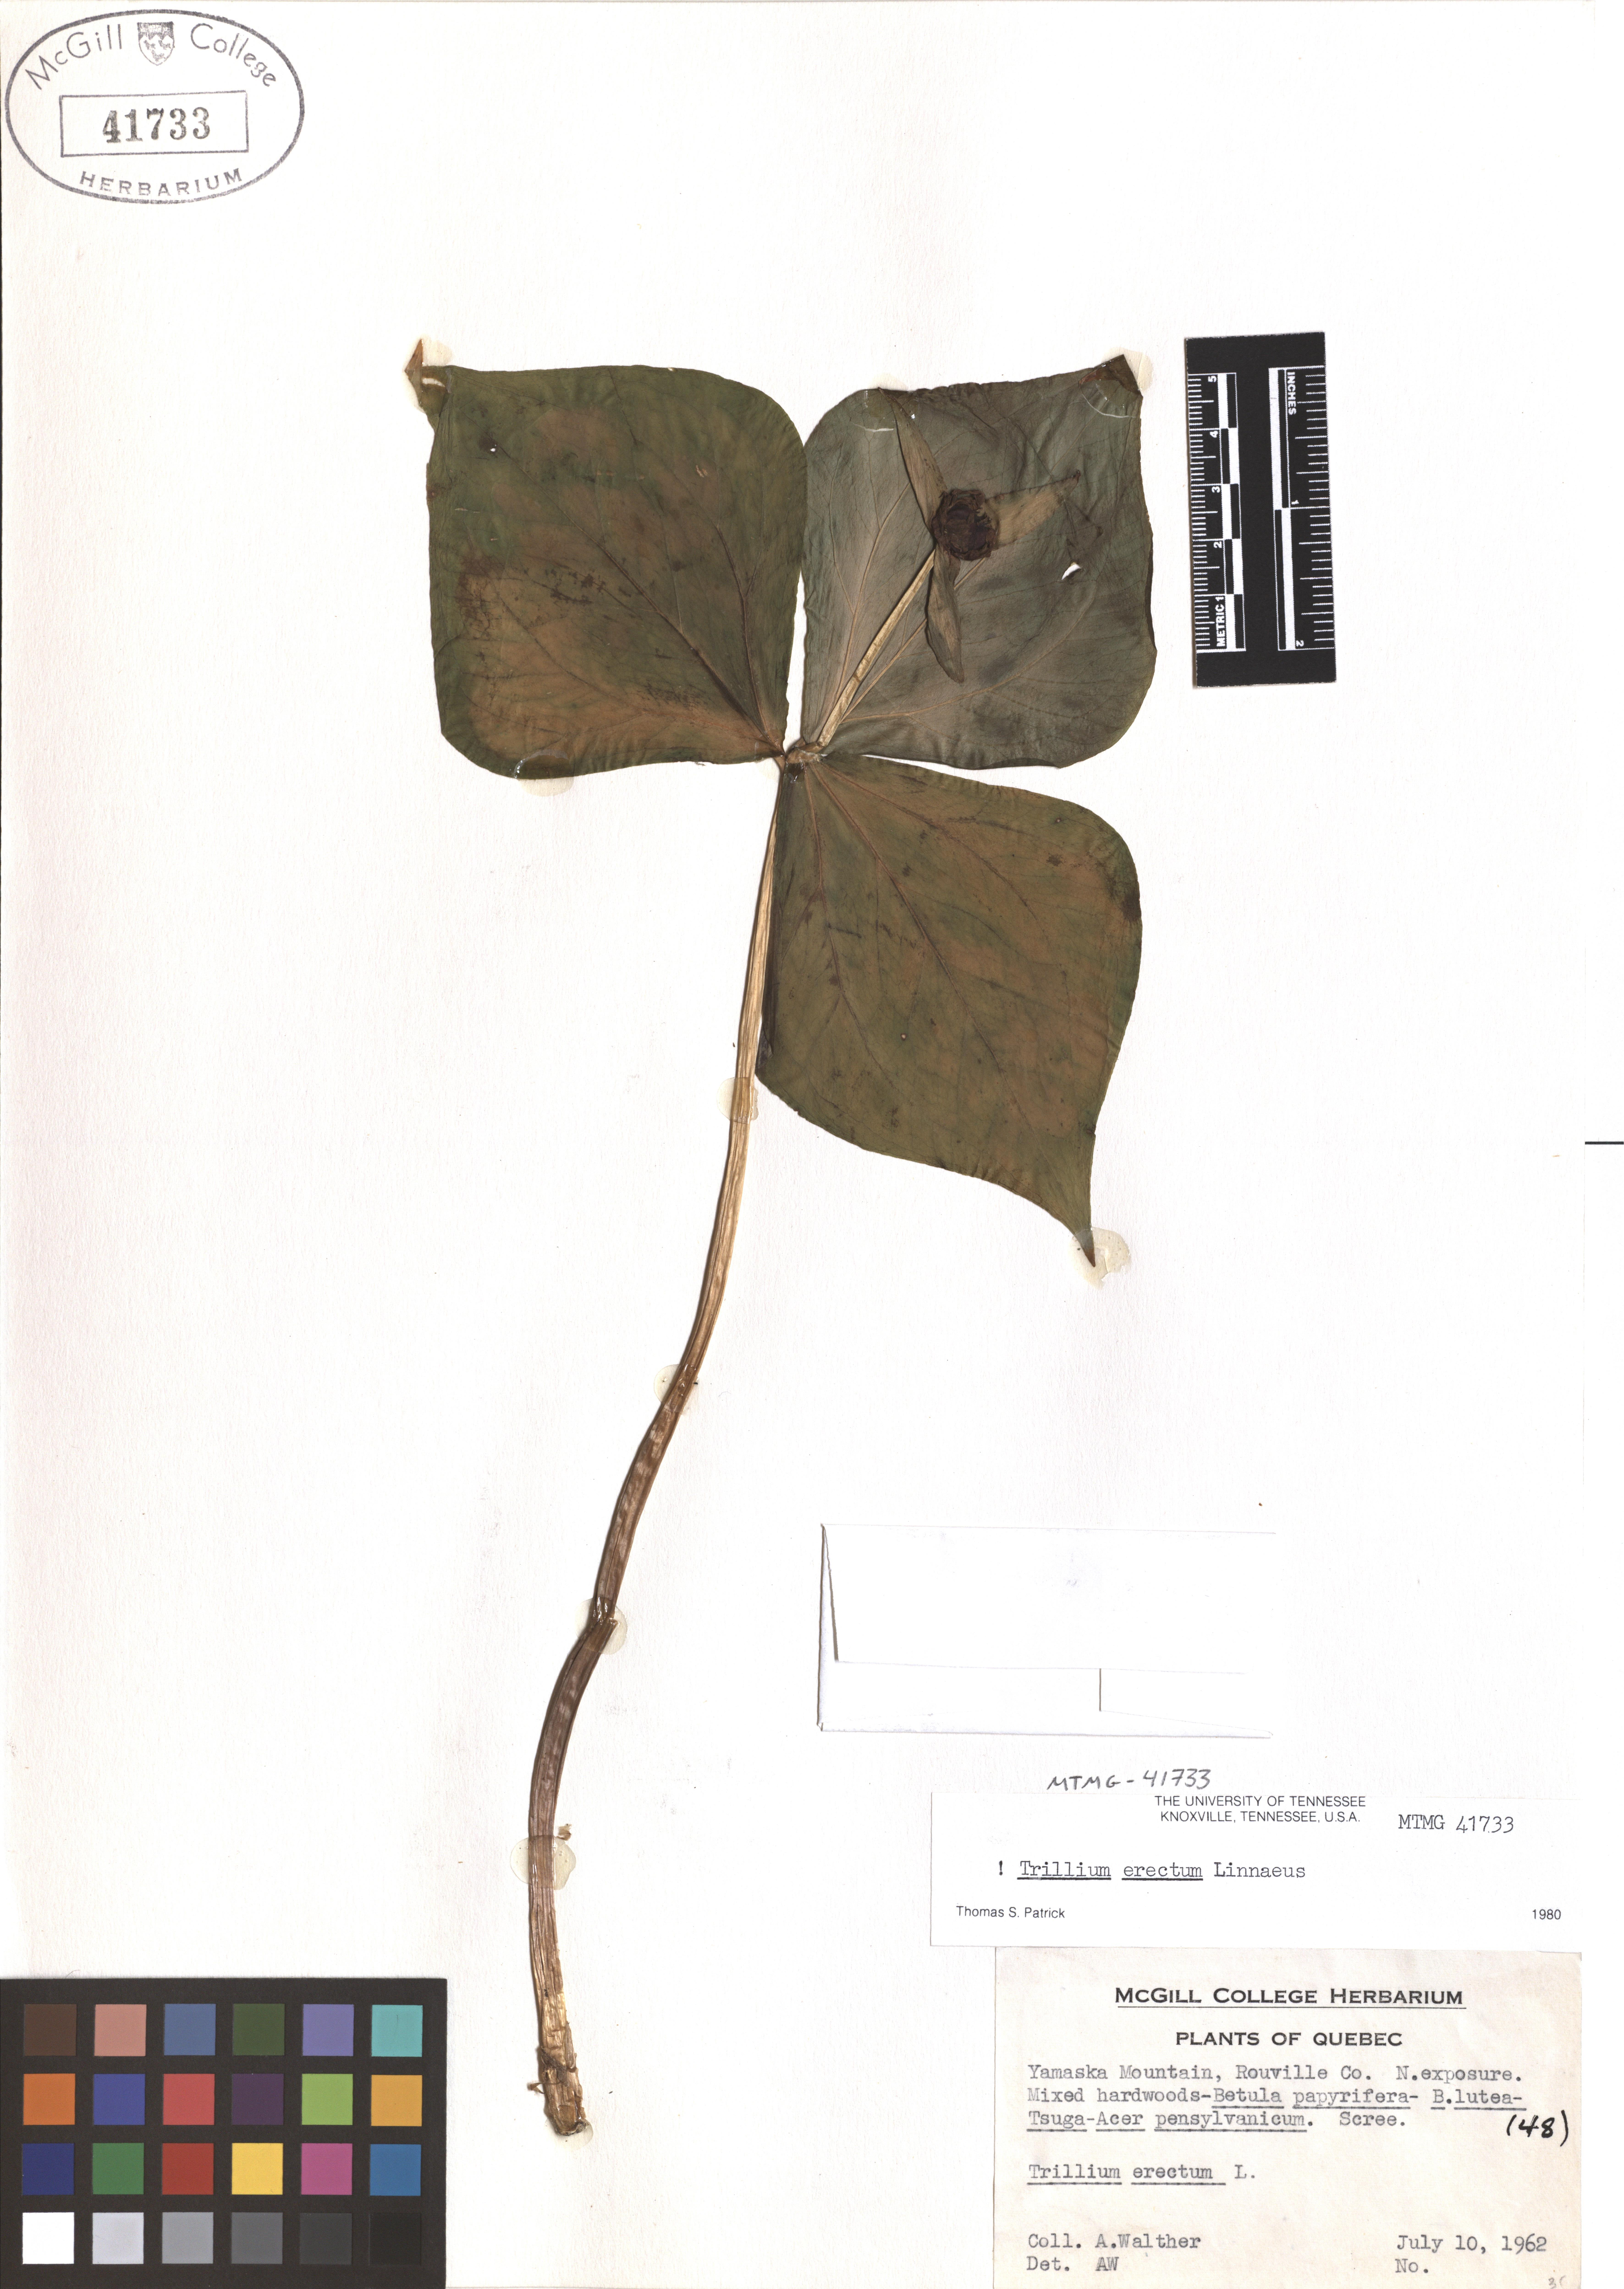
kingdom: Plantae
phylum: Tracheophyta
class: Liliopsida
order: Liliales
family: Melanthiaceae
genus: Trillium
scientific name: Trillium erectum
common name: Purple trillium
